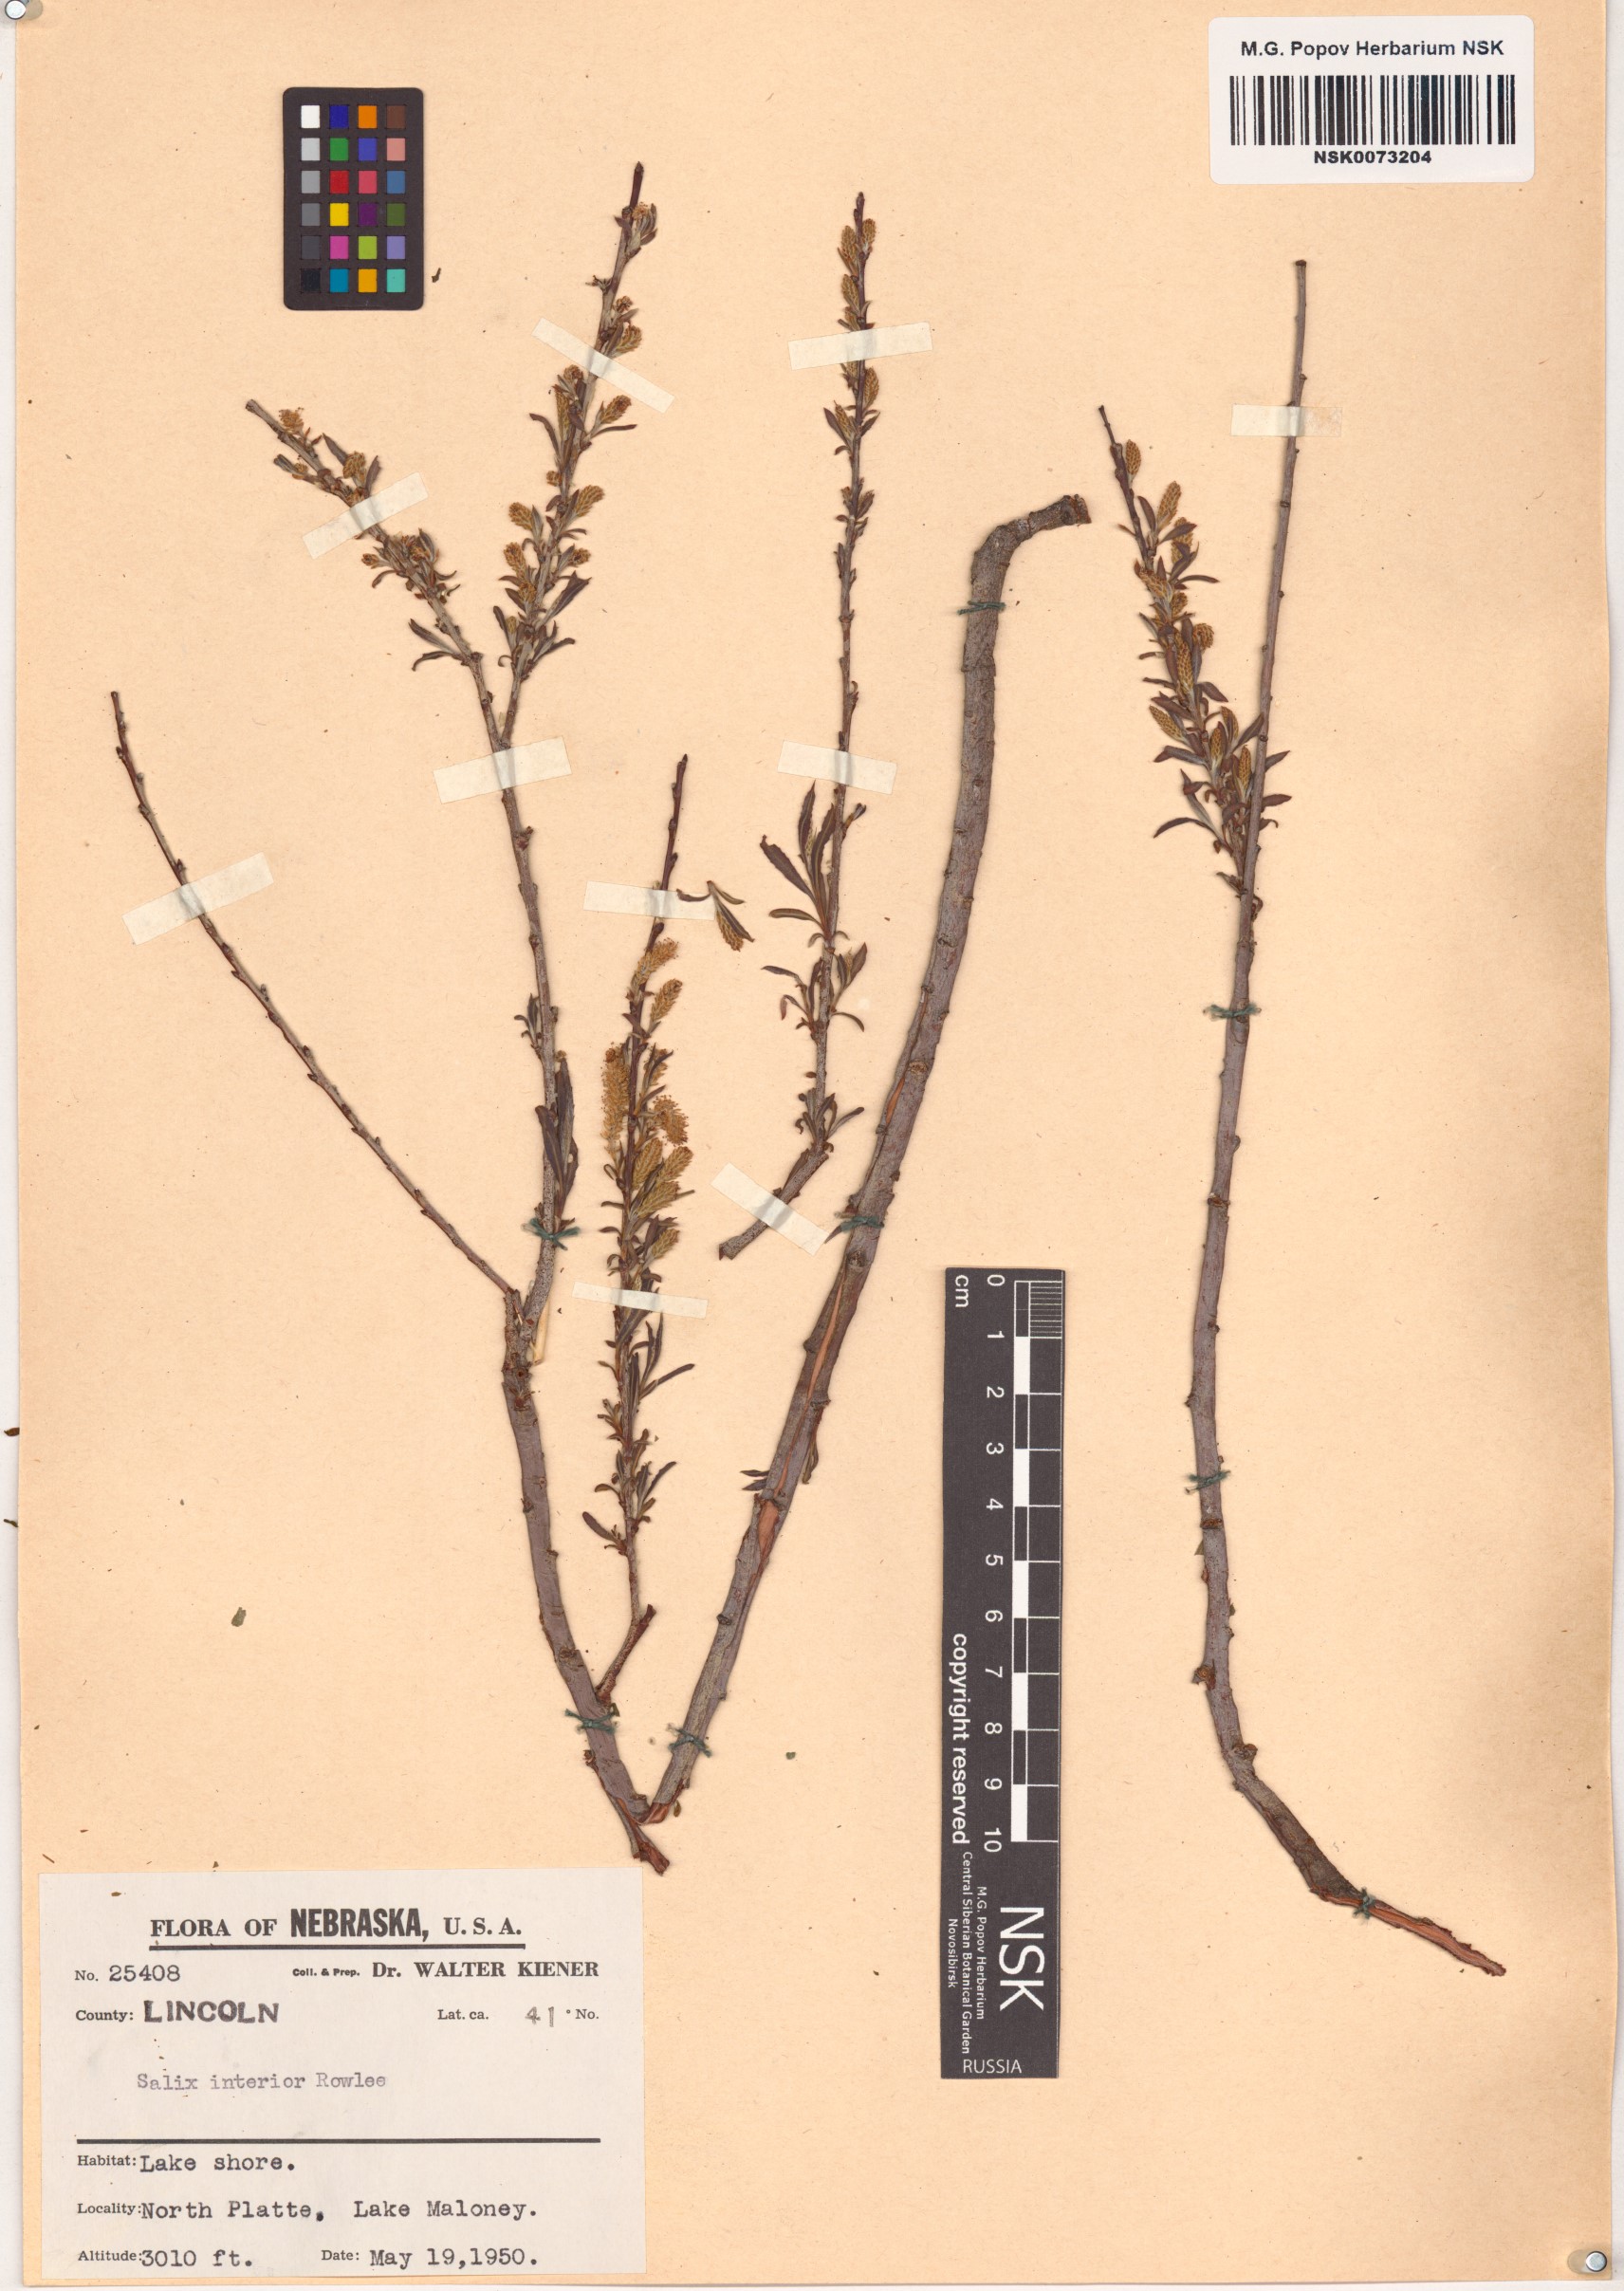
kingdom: Plantae
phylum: Tracheophyta
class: Magnoliopsida
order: Malpighiales
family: Salicaceae
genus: Salix
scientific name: Salix interior
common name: Sandbar willow
